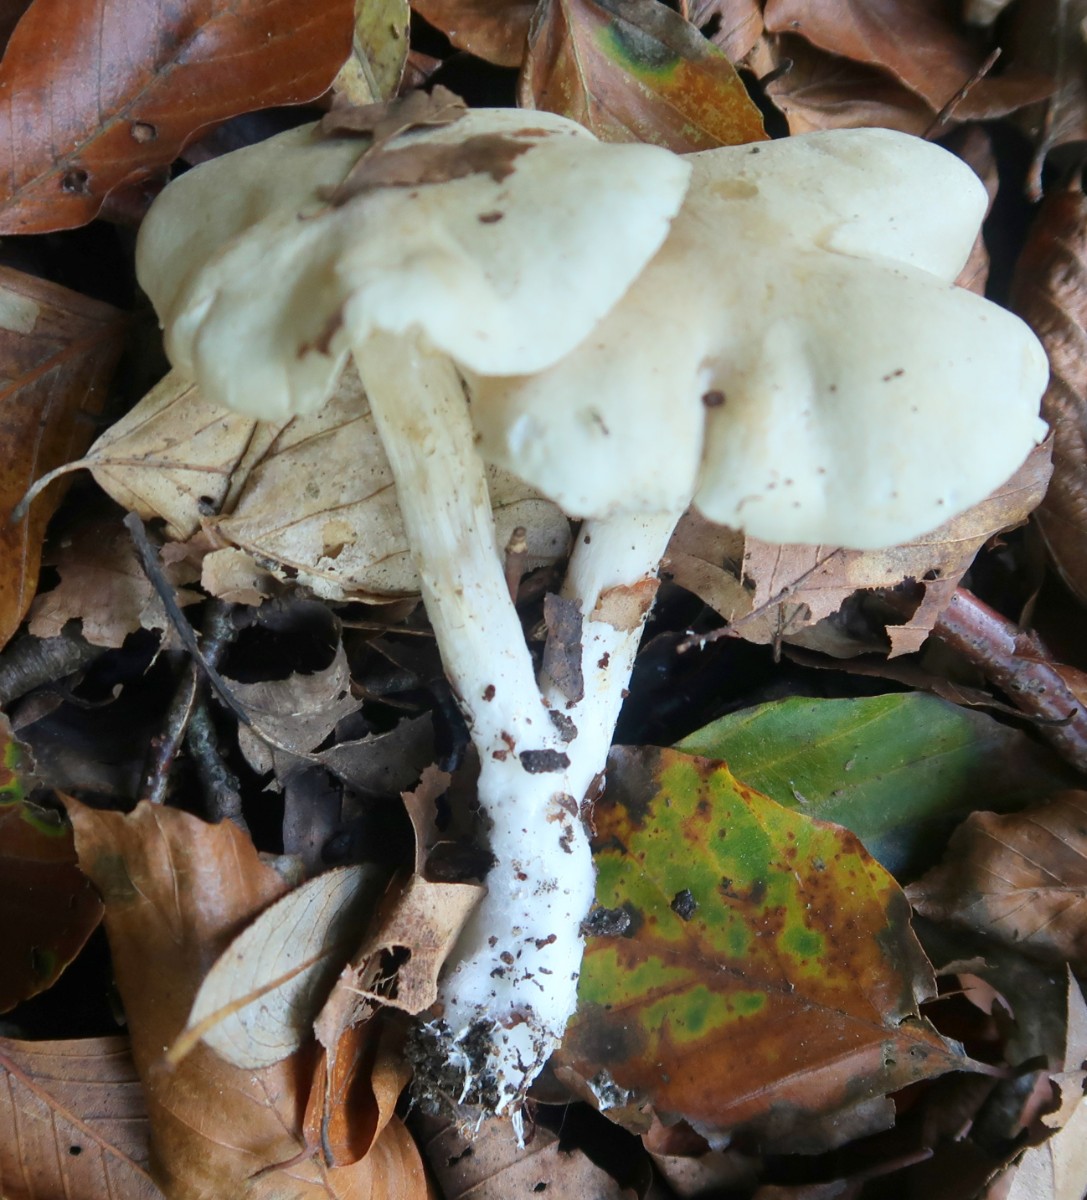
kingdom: Fungi
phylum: Basidiomycota
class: Agaricomycetes
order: Agaricales
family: Tricholomataceae
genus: Tricholoma
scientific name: Tricholoma lascivum
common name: stinkende ridderhat
